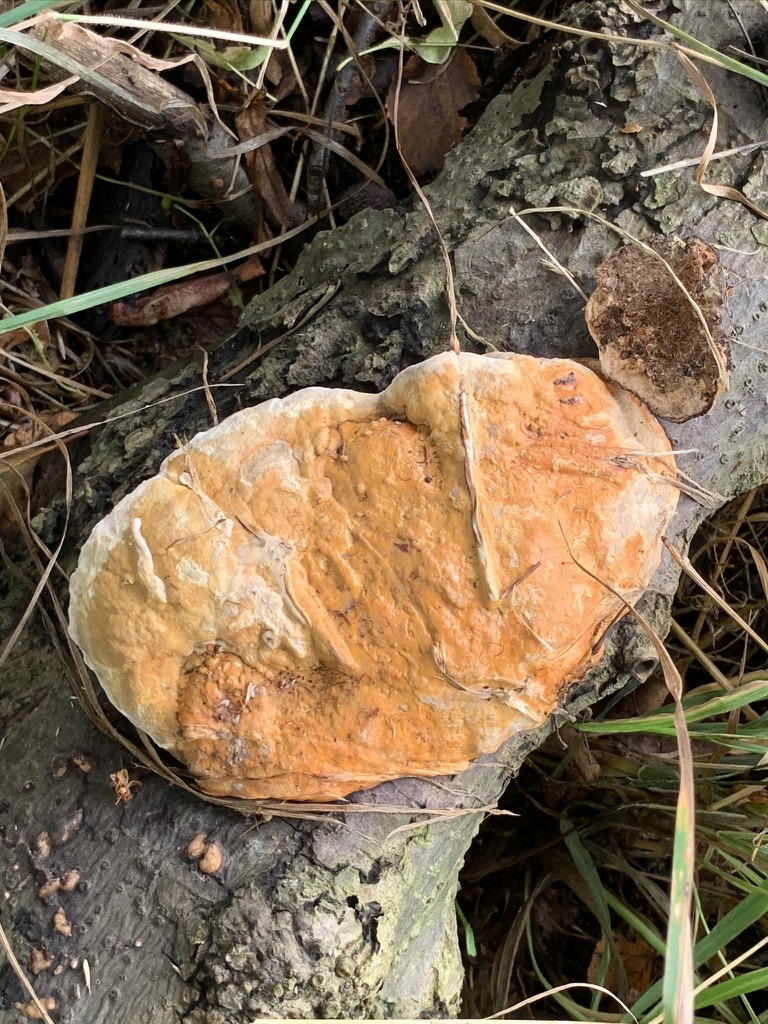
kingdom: Fungi
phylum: Basidiomycota
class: Agaricomycetes
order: Polyporales
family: Fomitopsidaceae
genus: Fomitopsis
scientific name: Fomitopsis pinicola
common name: randbæltet hovporesvamp
